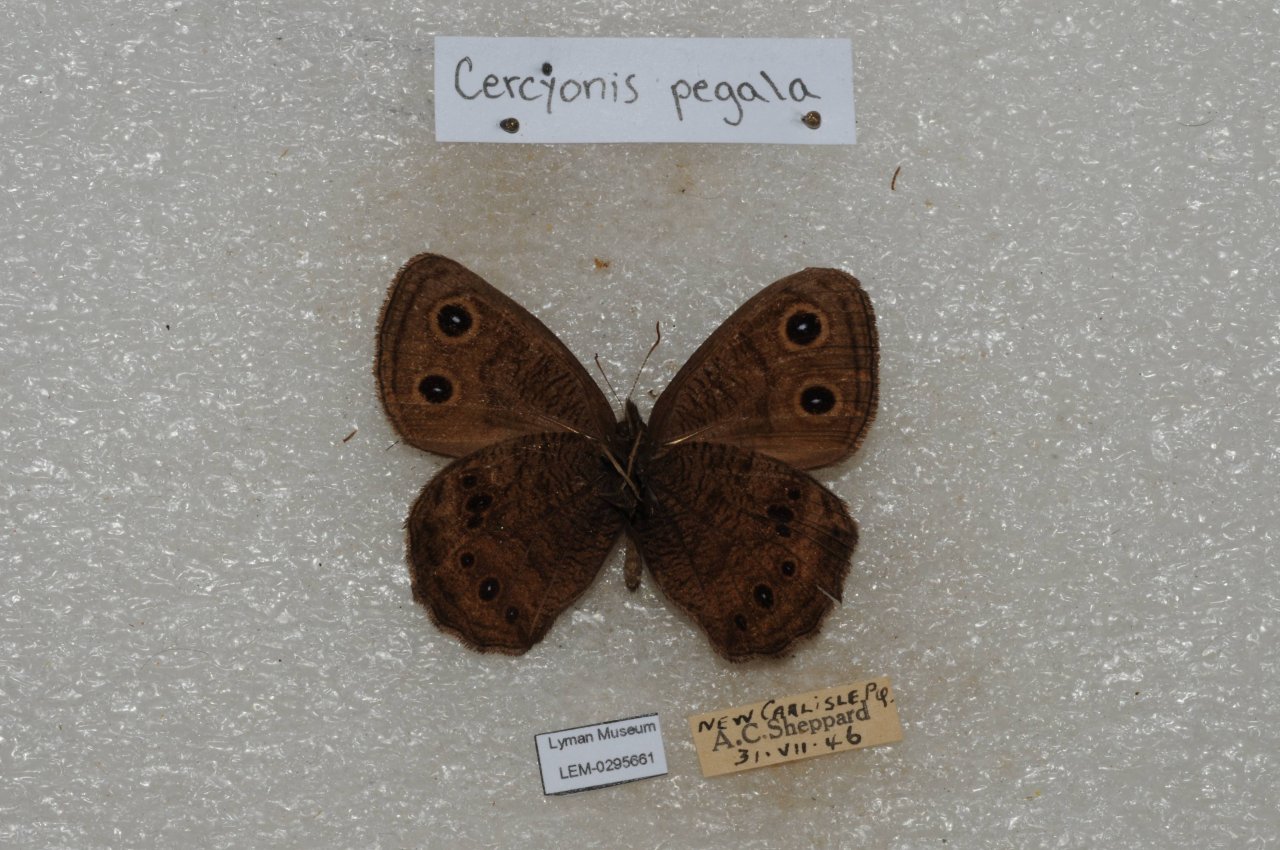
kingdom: Animalia
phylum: Arthropoda
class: Insecta
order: Lepidoptera
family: Nymphalidae
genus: Cercyonis
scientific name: Cercyonis pegala
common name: Common Wood-Nymph
